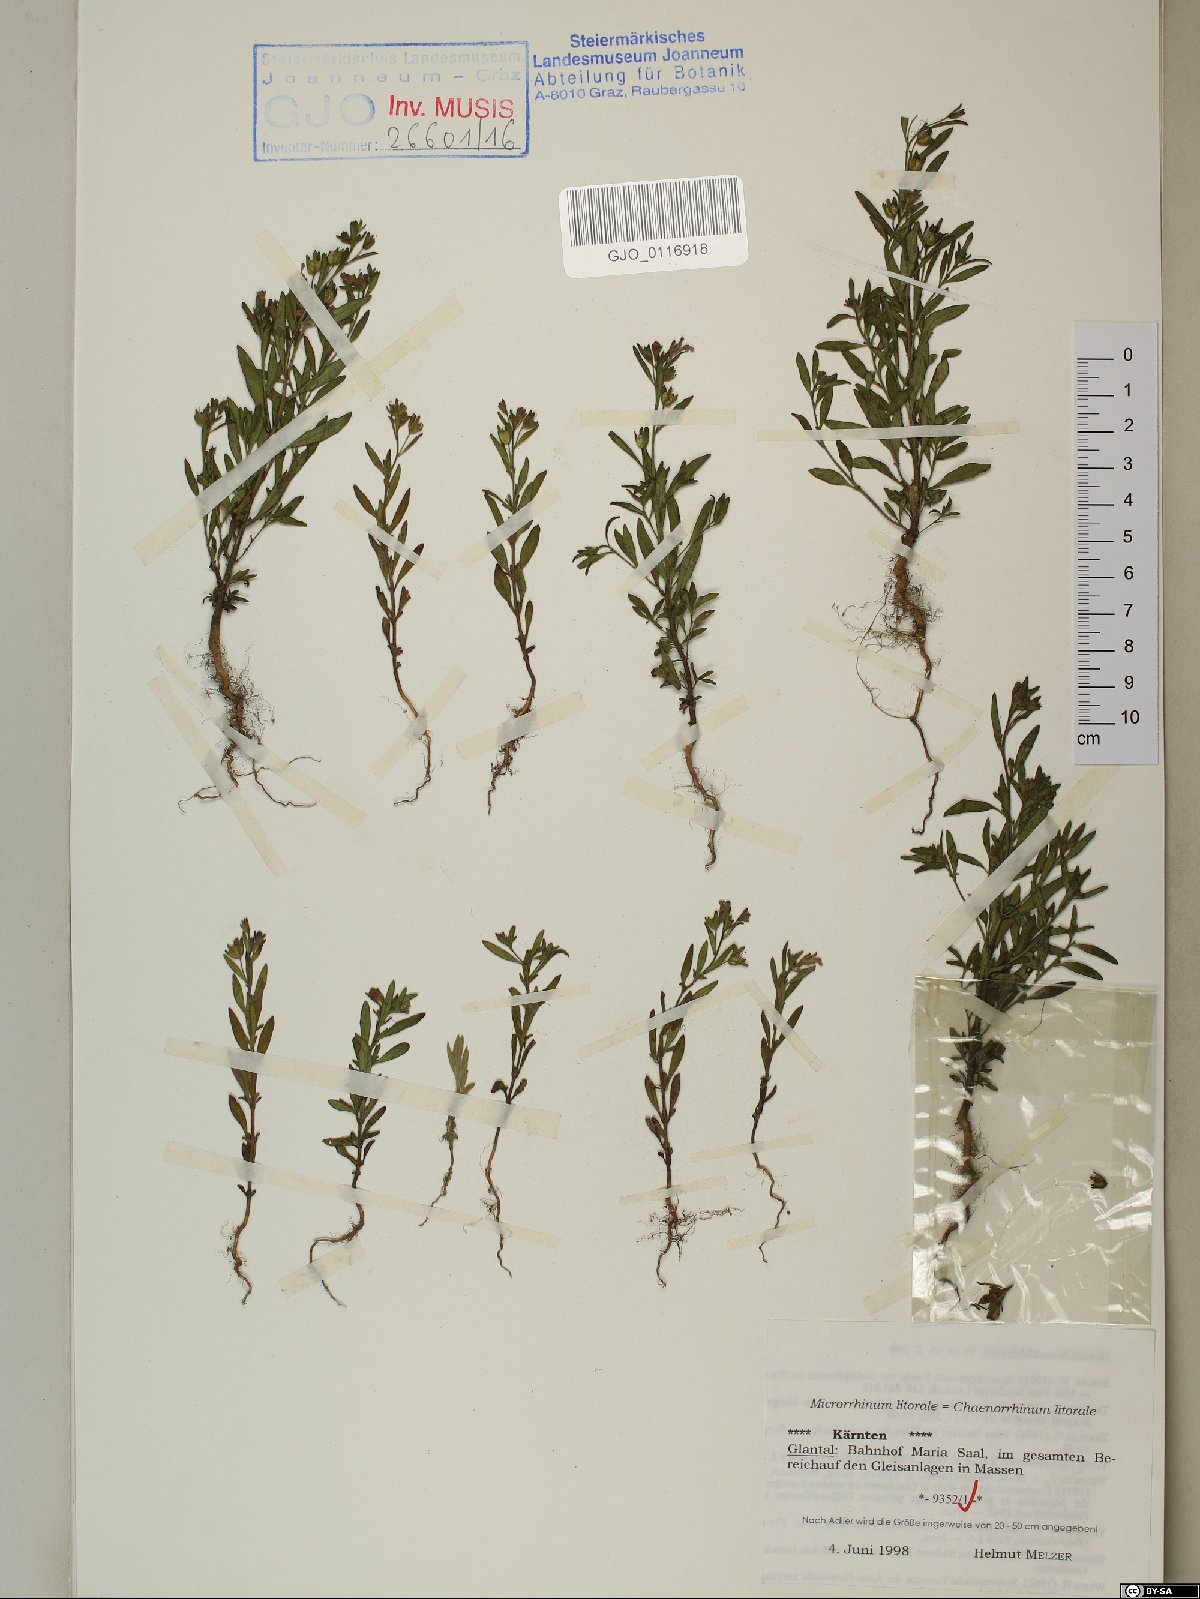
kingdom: Plantae
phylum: Tracheophyta
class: Magnoliopsida
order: Lamiales
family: Plantaginaceae
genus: Chaenorhinum
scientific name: Chaenorhinum litorale
